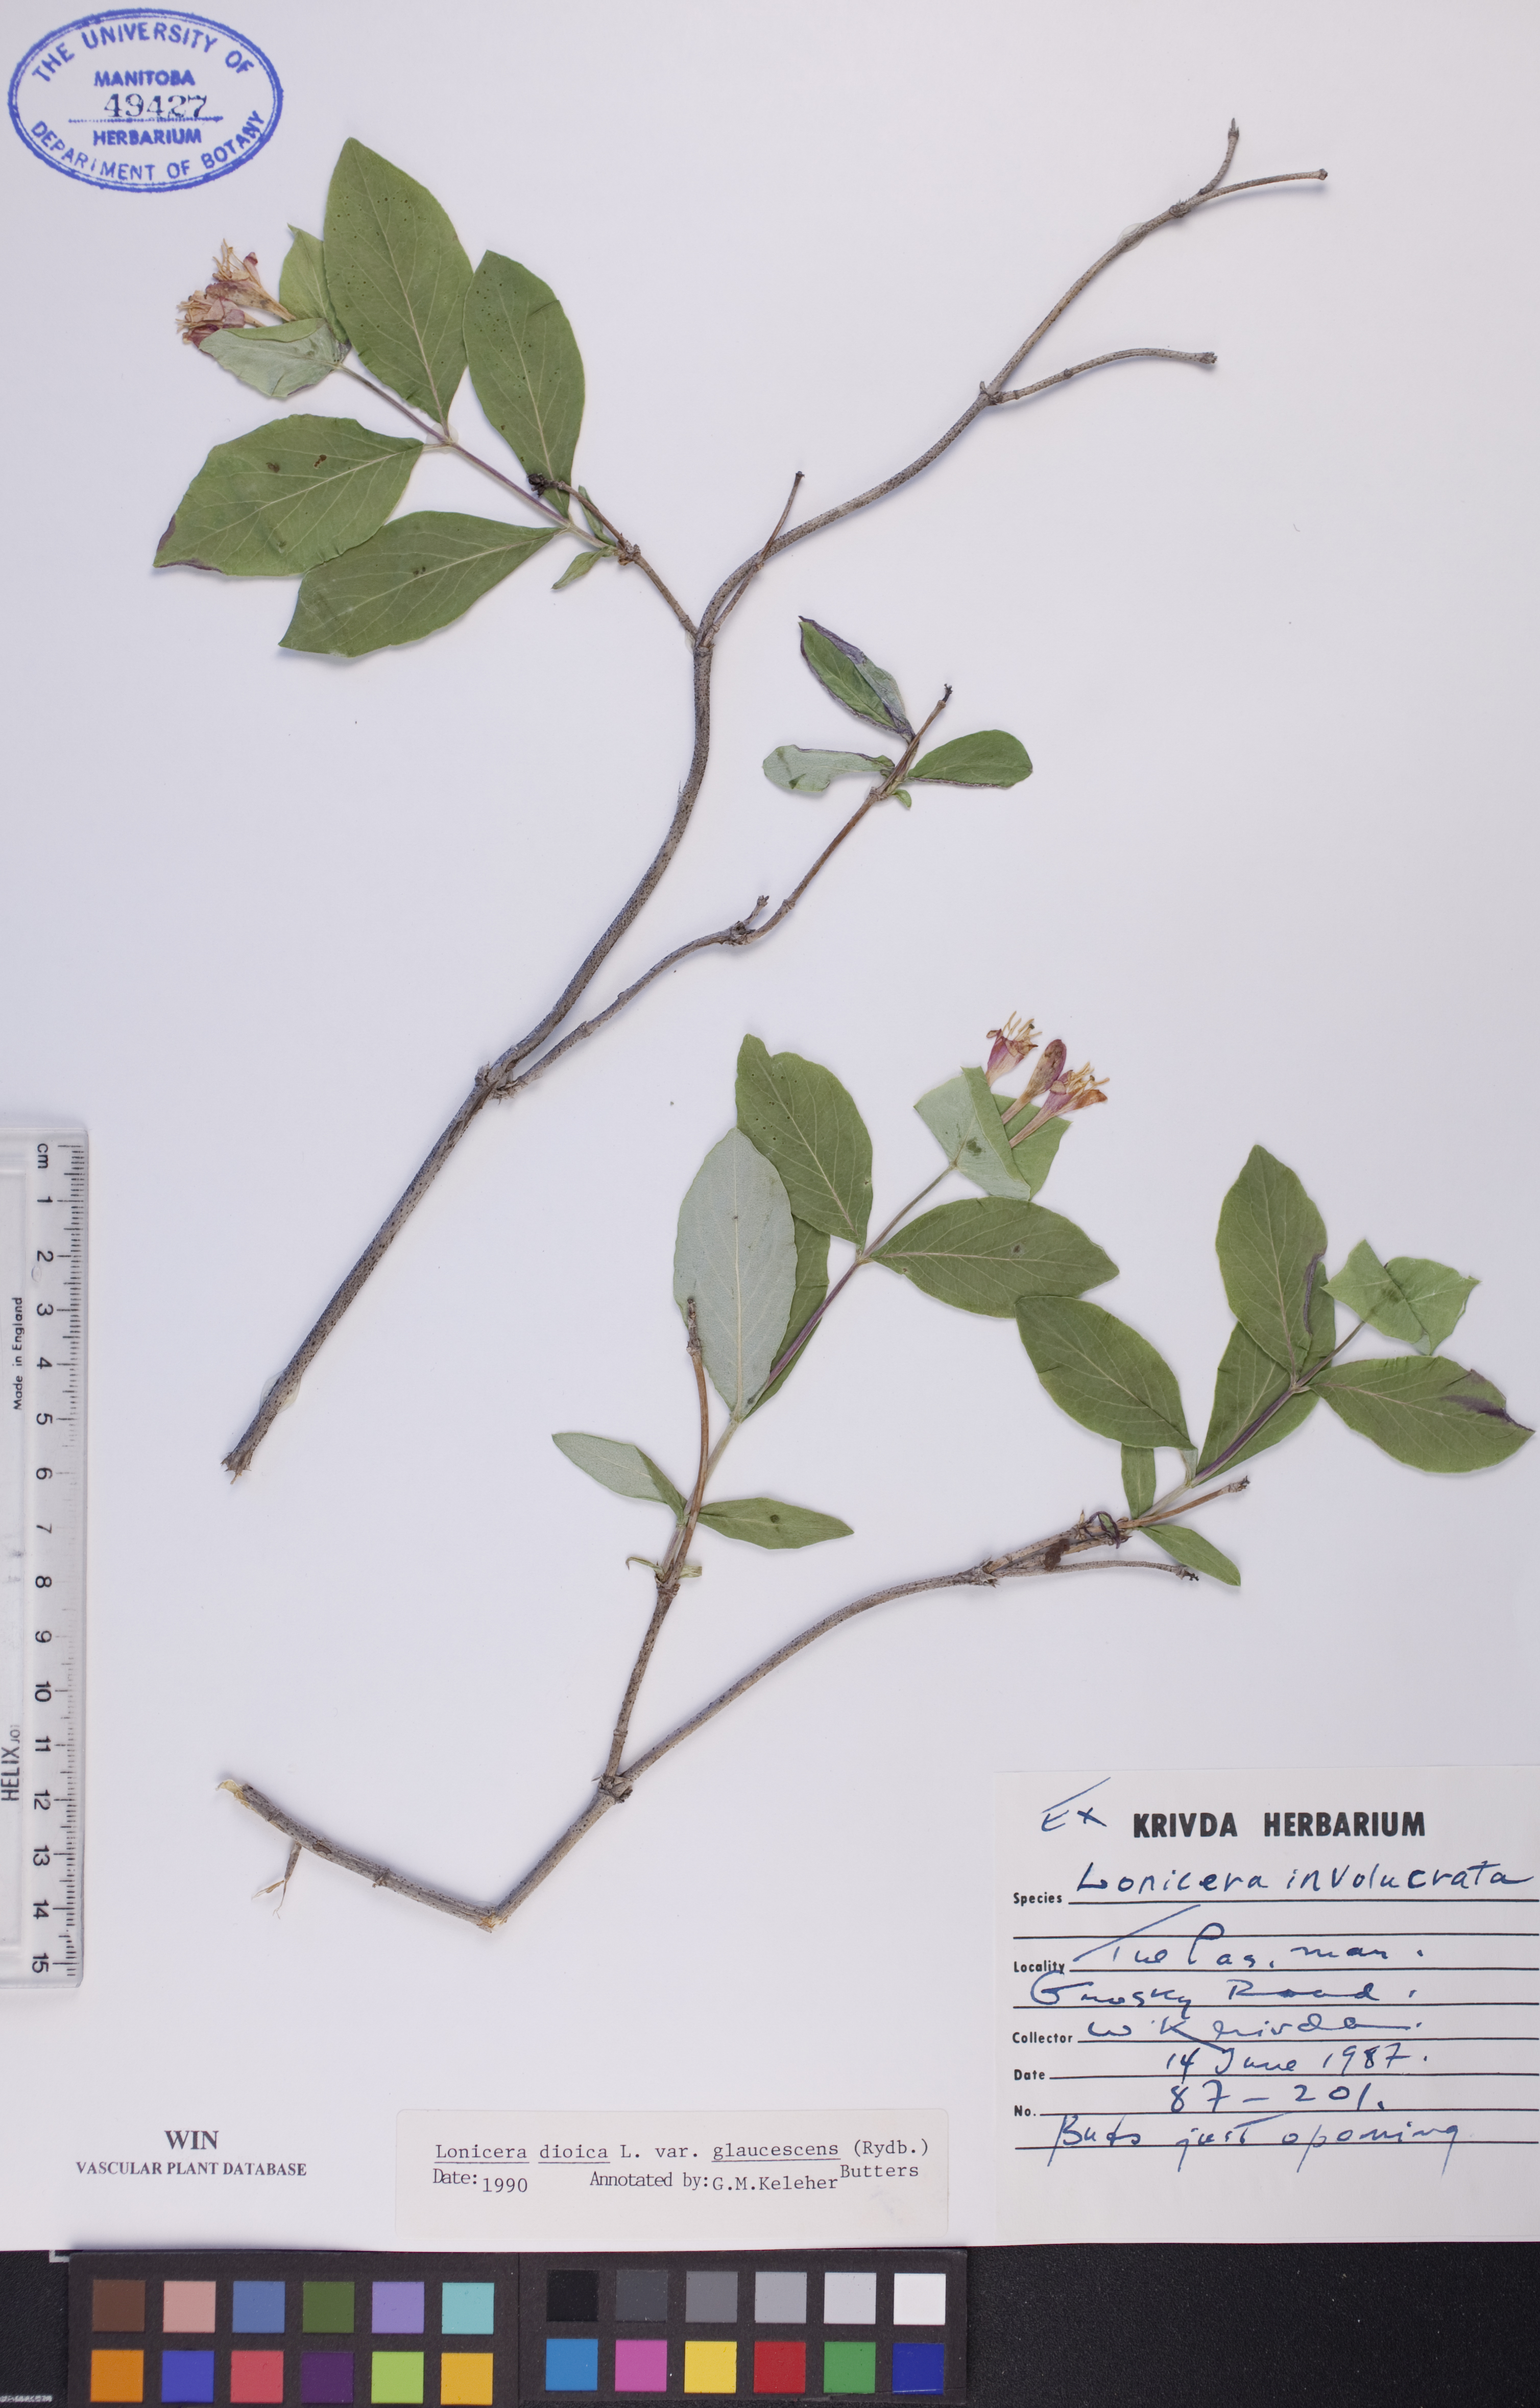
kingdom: Plantae
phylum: Tracheophyta
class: Magnoliopsida
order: Dipsacales
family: Caprifoliaceae
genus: Lonicera
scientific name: Lonicera dioica
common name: Limber honeysuckle
